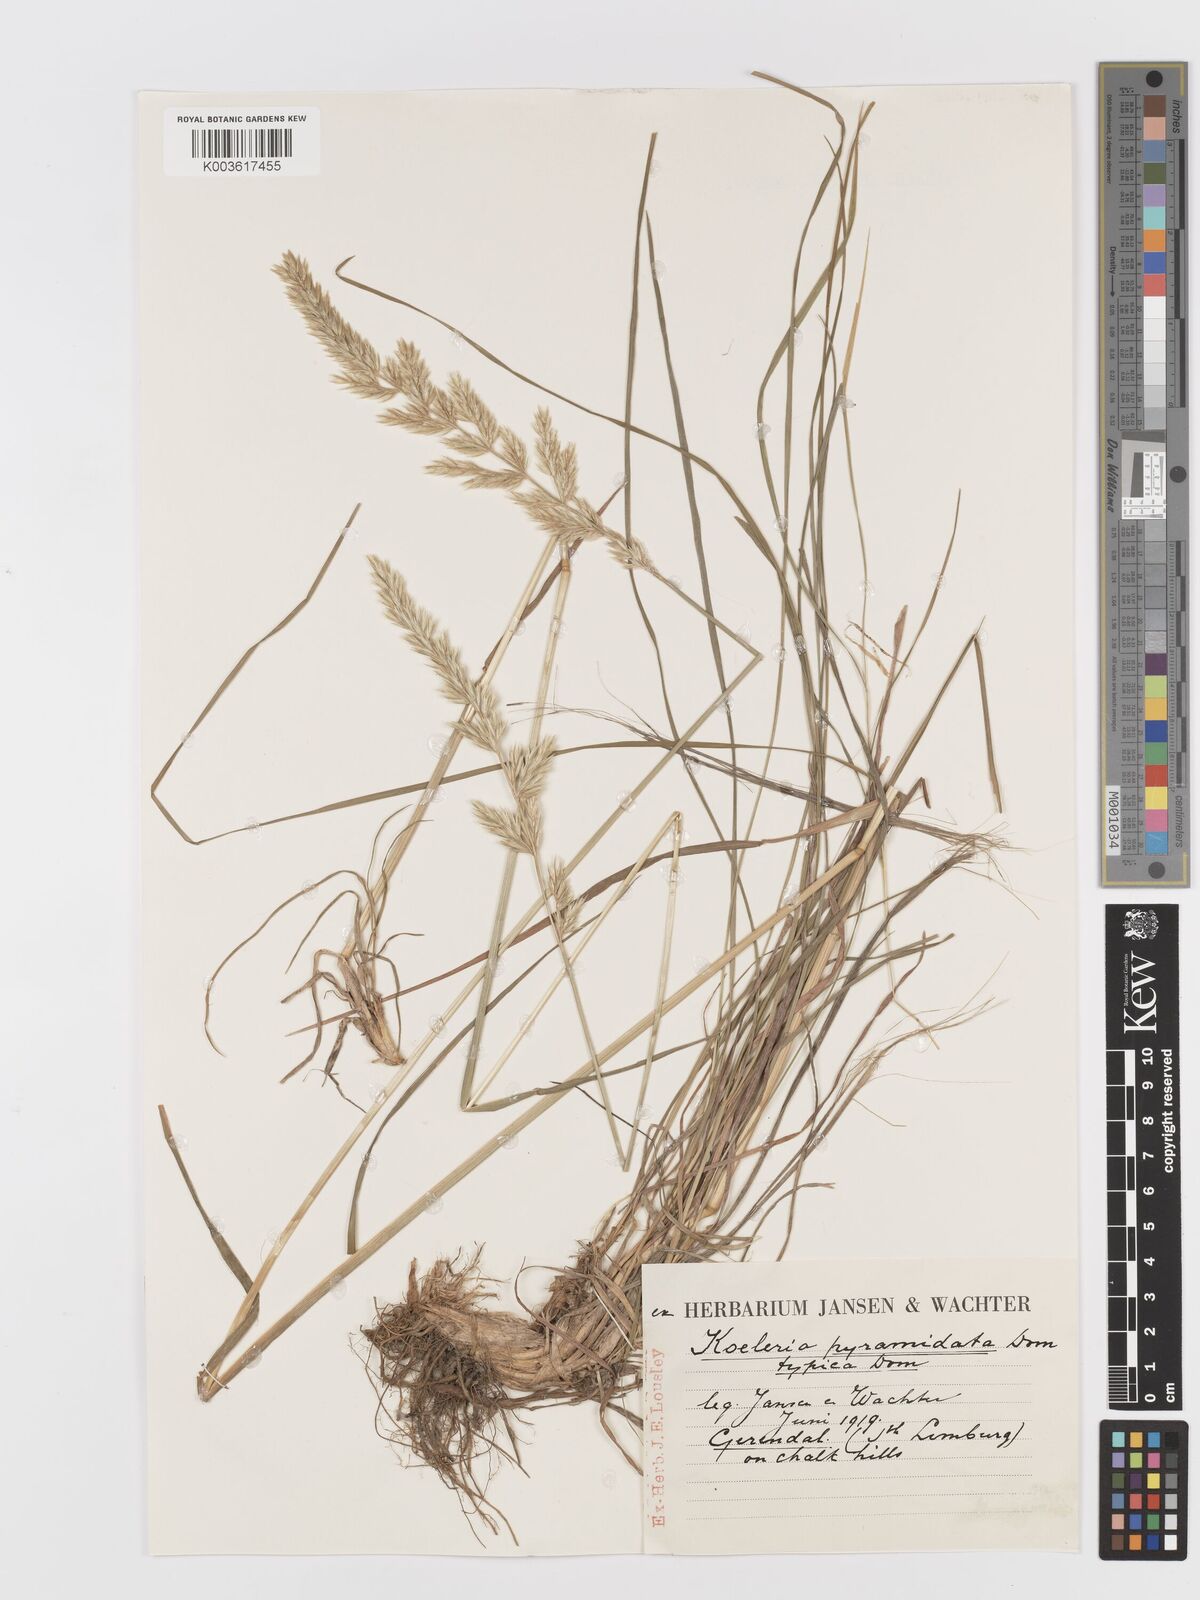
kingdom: Plantae
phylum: Tracheophyta
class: Liliopsida
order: Poales
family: Poaceae
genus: Koeleria
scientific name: Koeleria pyramidata
